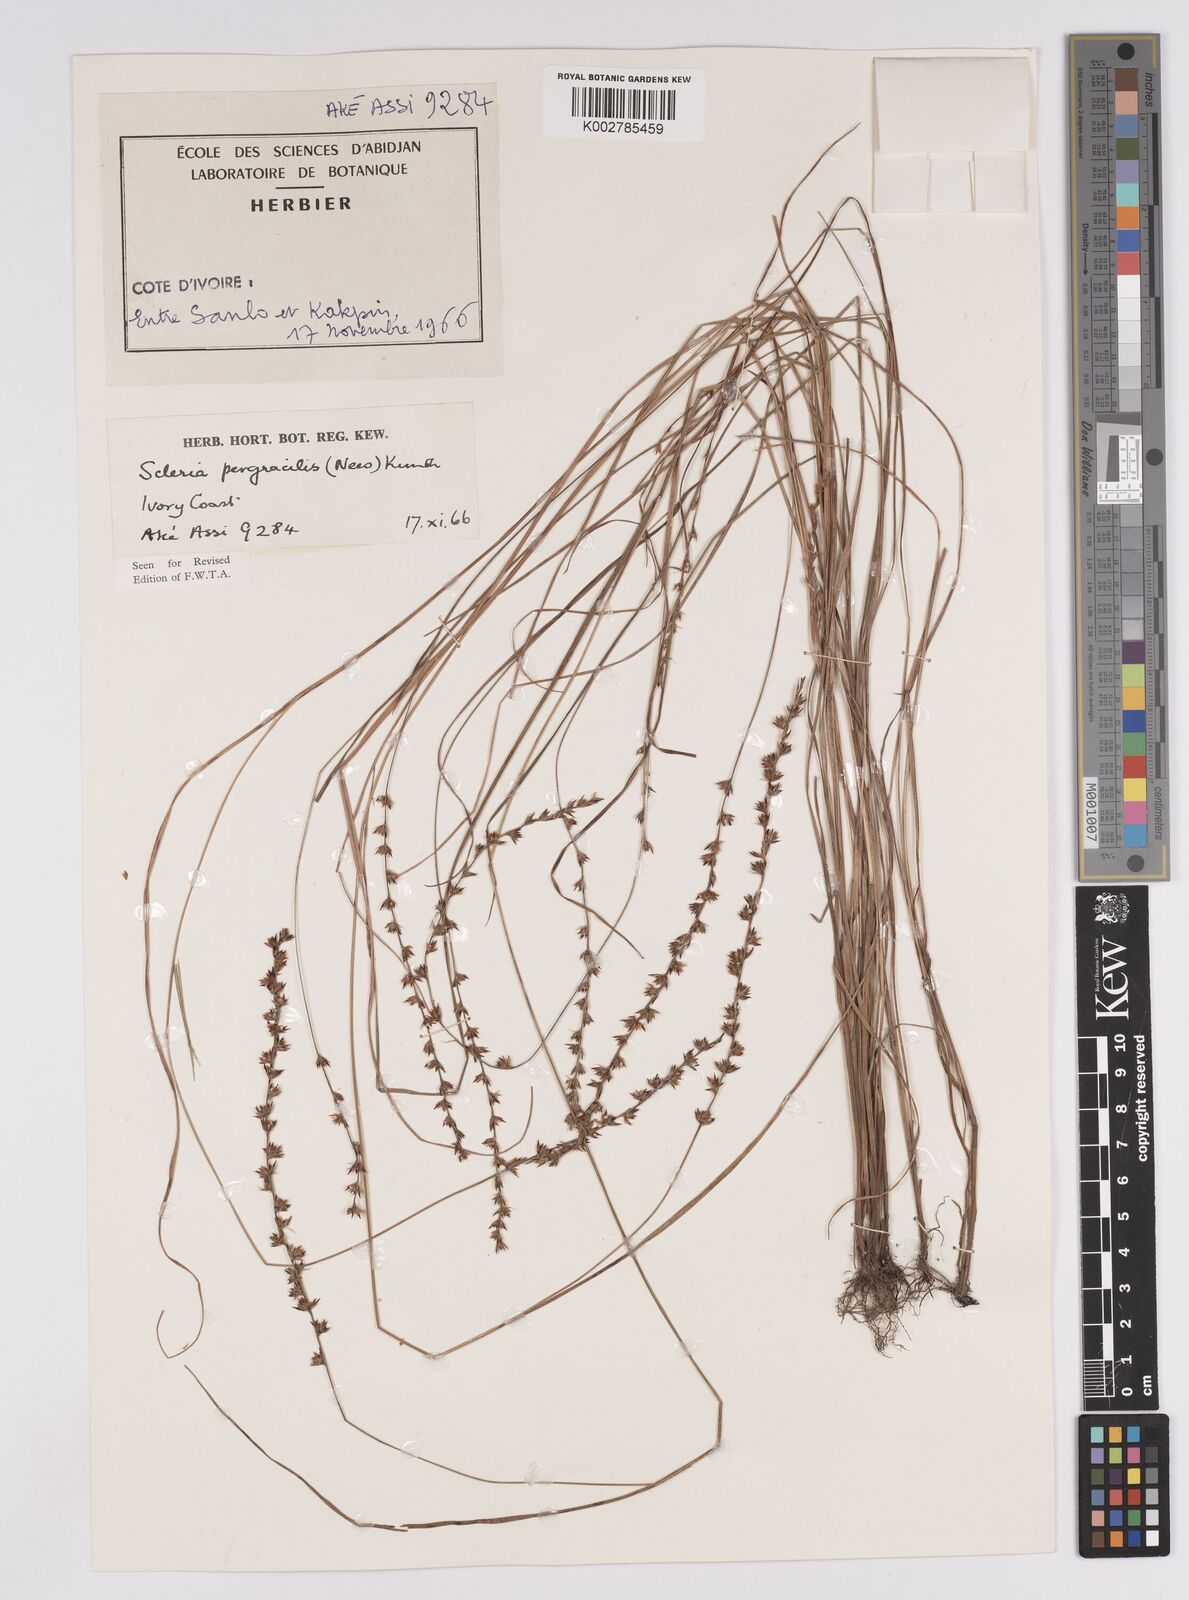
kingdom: Plantae
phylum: Tracheophyta
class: Liliopsida
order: Poales
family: Cyperaceae
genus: Scleria
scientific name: Scleria pergracilis
